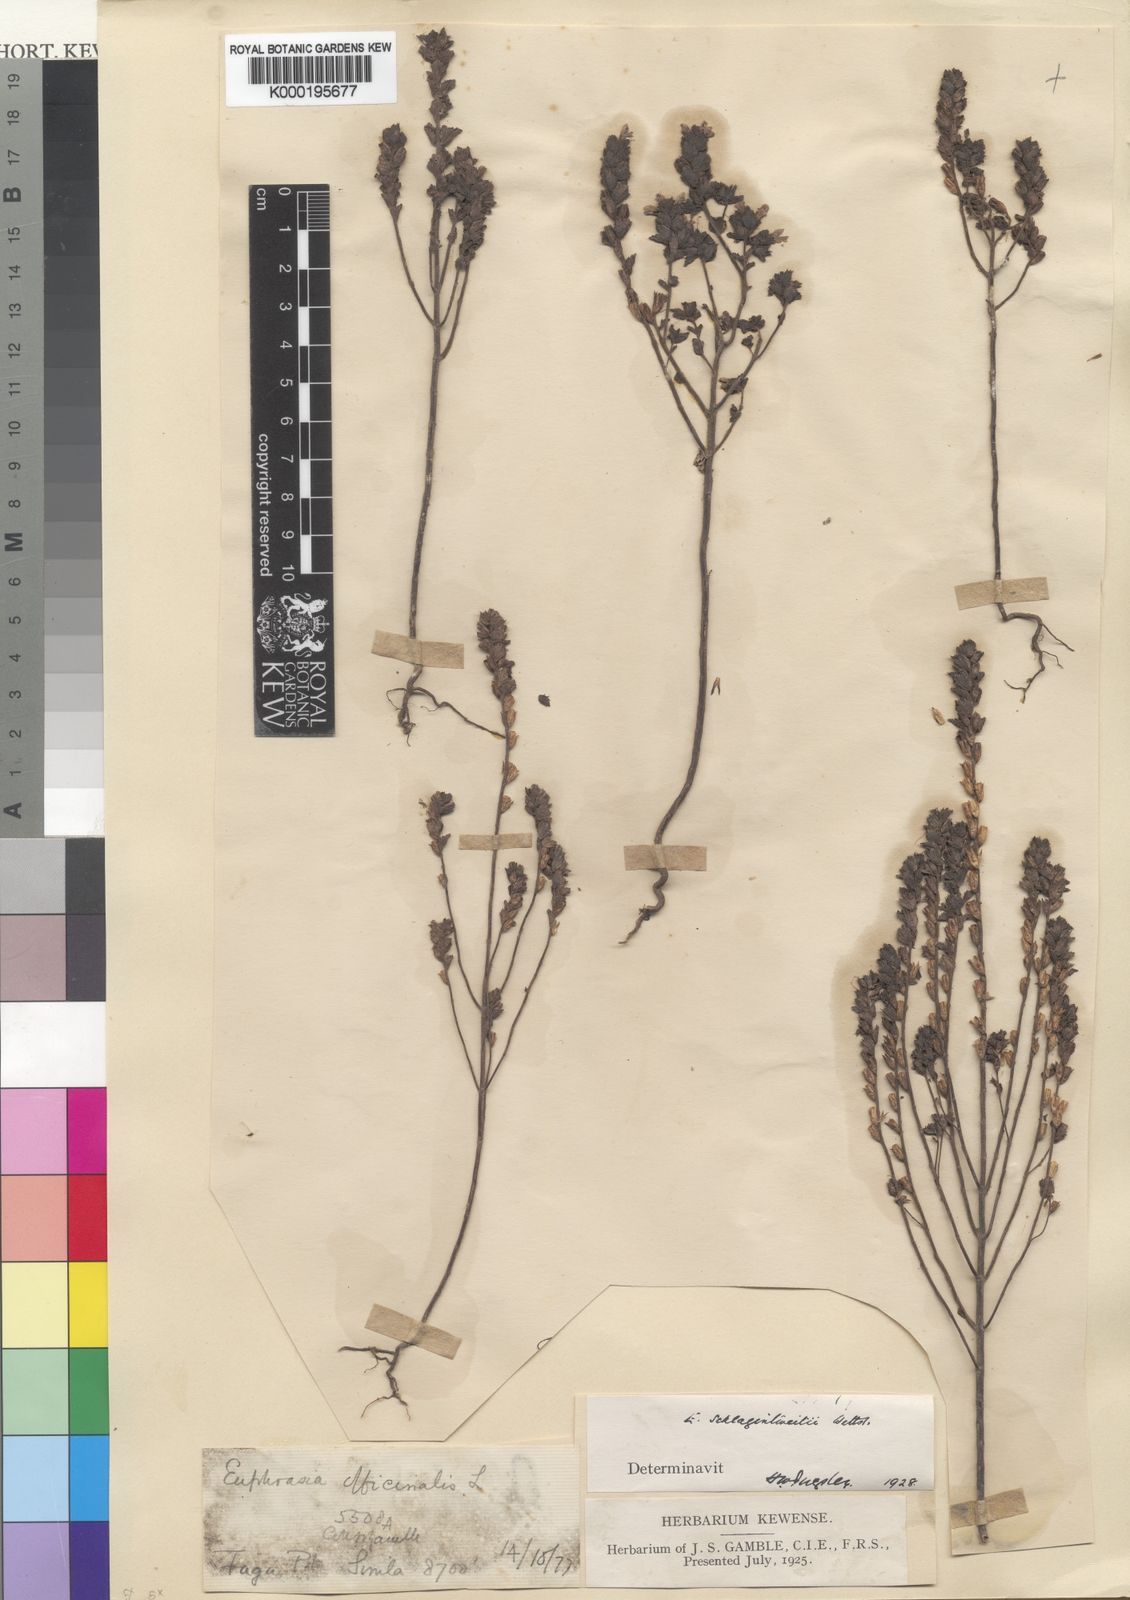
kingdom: Plantae
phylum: Tracheophyta
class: Magnoliopsida
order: Lamiales
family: Orobanchaceae
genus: Euphrasia
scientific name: Euphrasia schlagintweitii
